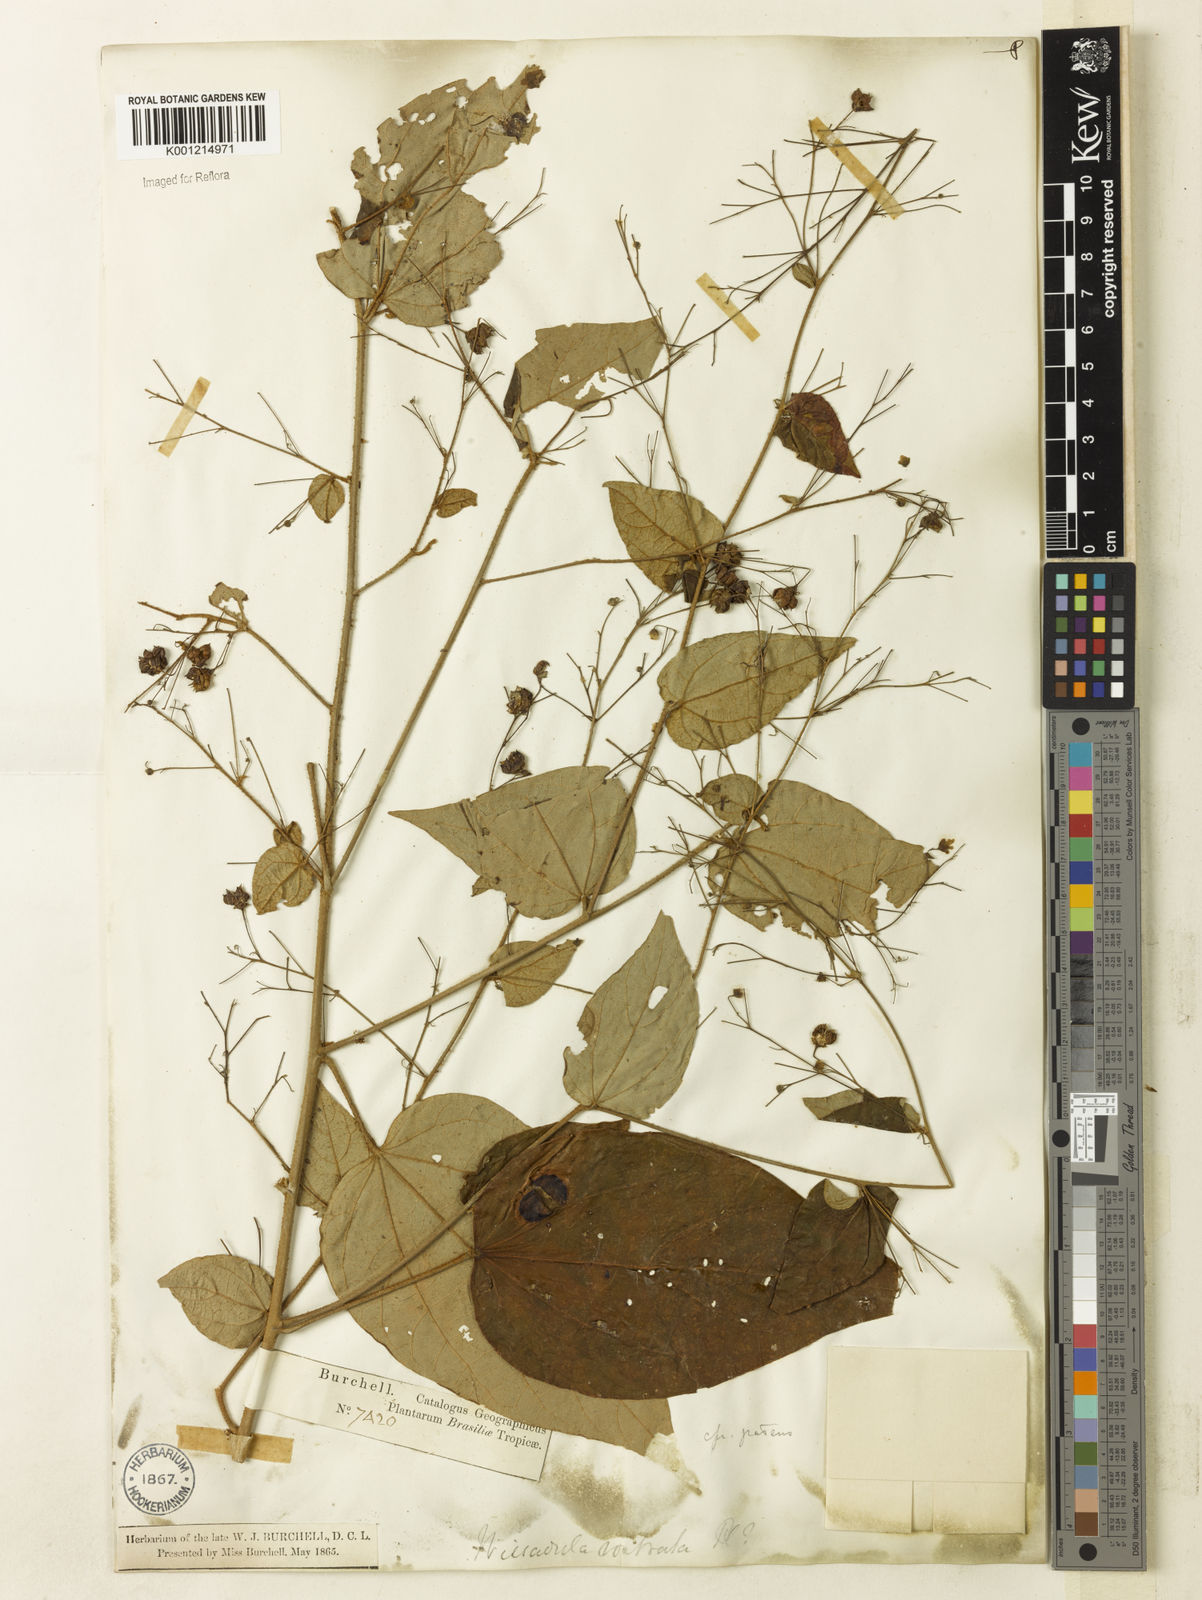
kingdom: Plantae
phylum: Tracheophyta
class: Magnoliopsida
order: Malvales
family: Malvaceae
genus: Wissadula
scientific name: Wissadula excelsior
